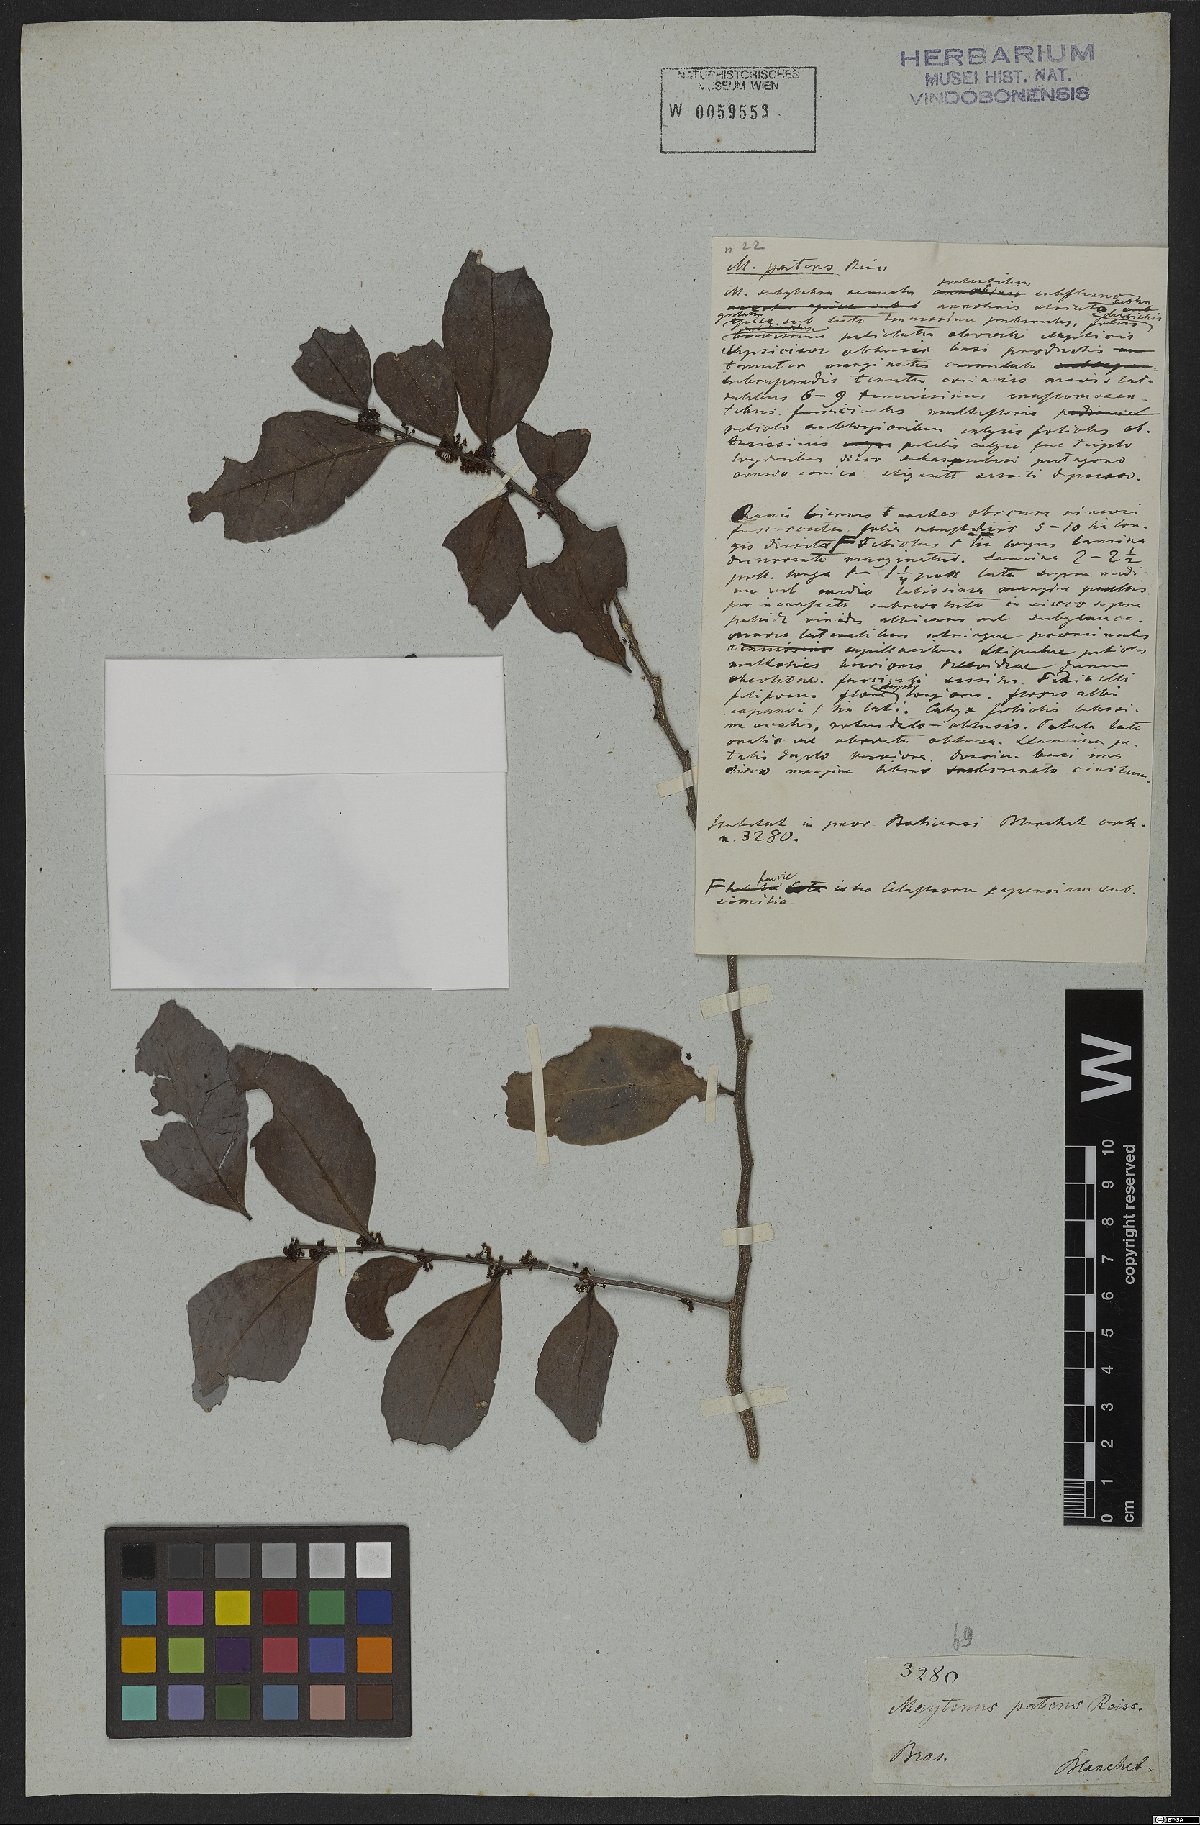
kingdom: Plantae
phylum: Tracheophyta
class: Magnoliopsida
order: Celastrales
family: Celastraceae
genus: Monteverdia
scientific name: Monteverdia patens
